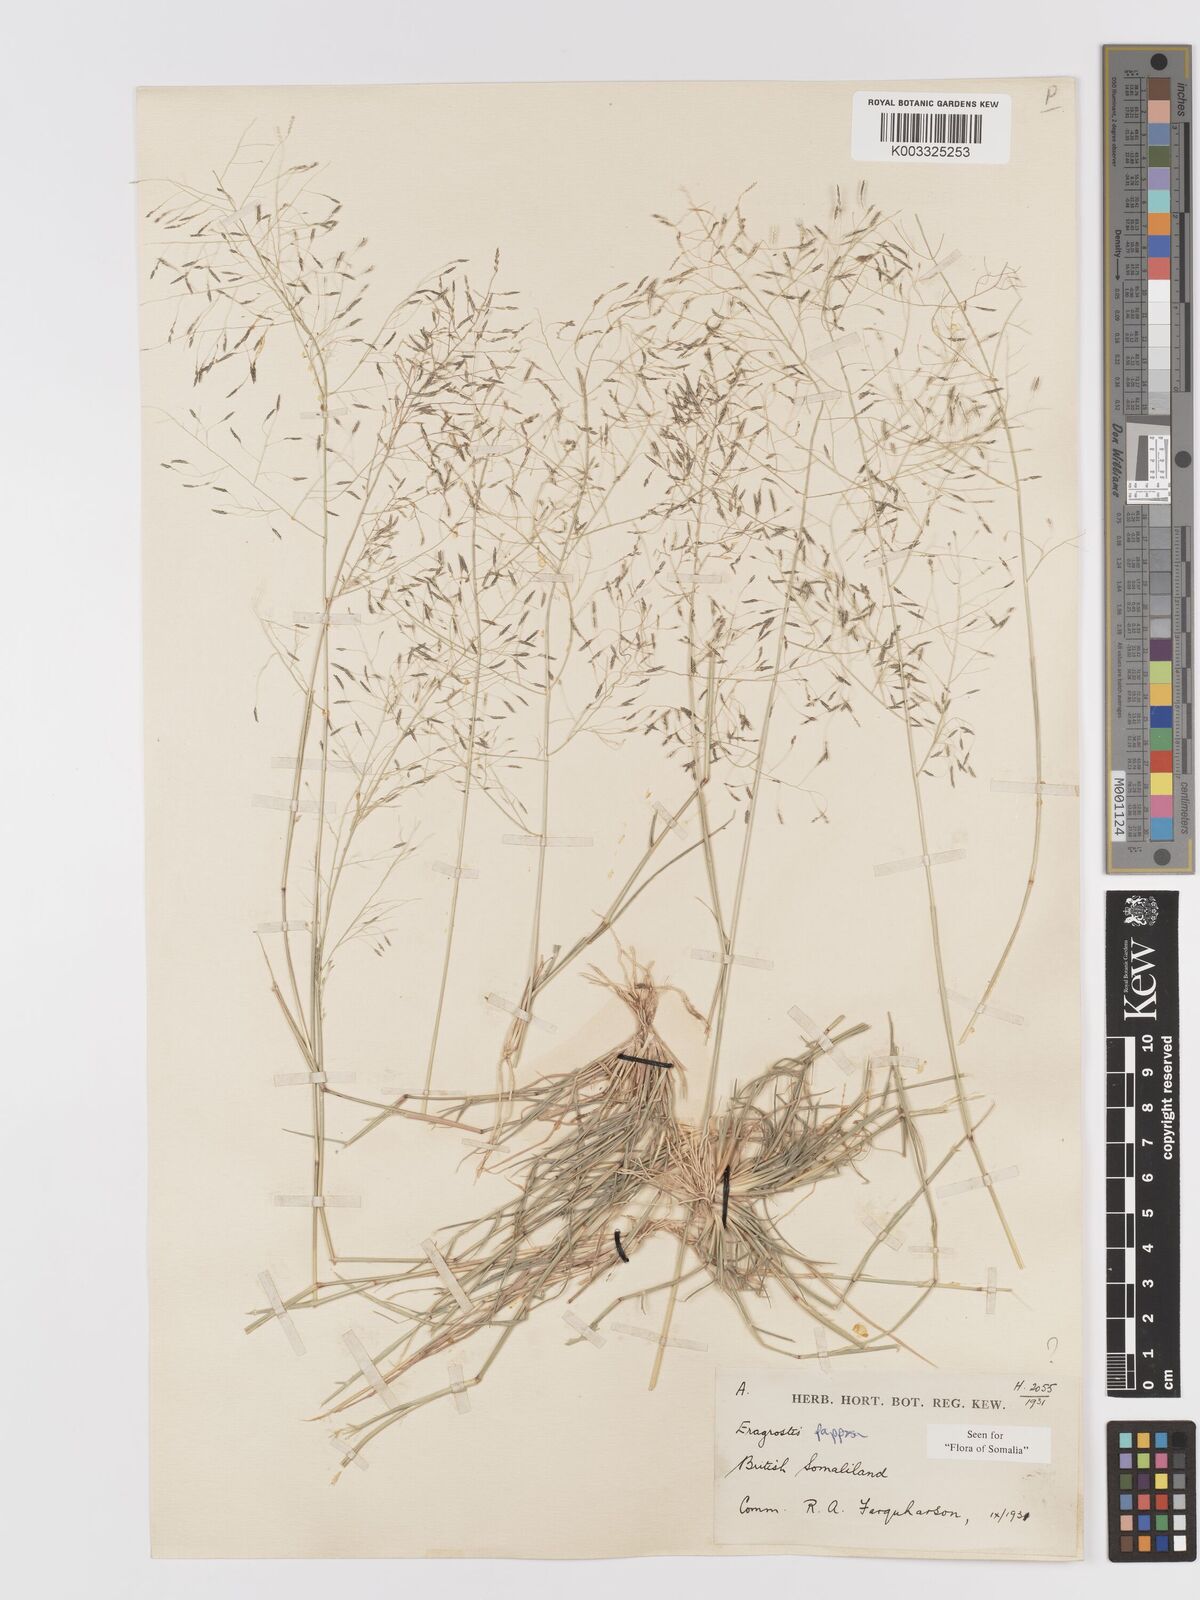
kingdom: Plantae
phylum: Tracheophyta
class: Liliopsida
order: Poales
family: Poaceae
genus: Eragrostis
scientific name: Eragrostis papposa
